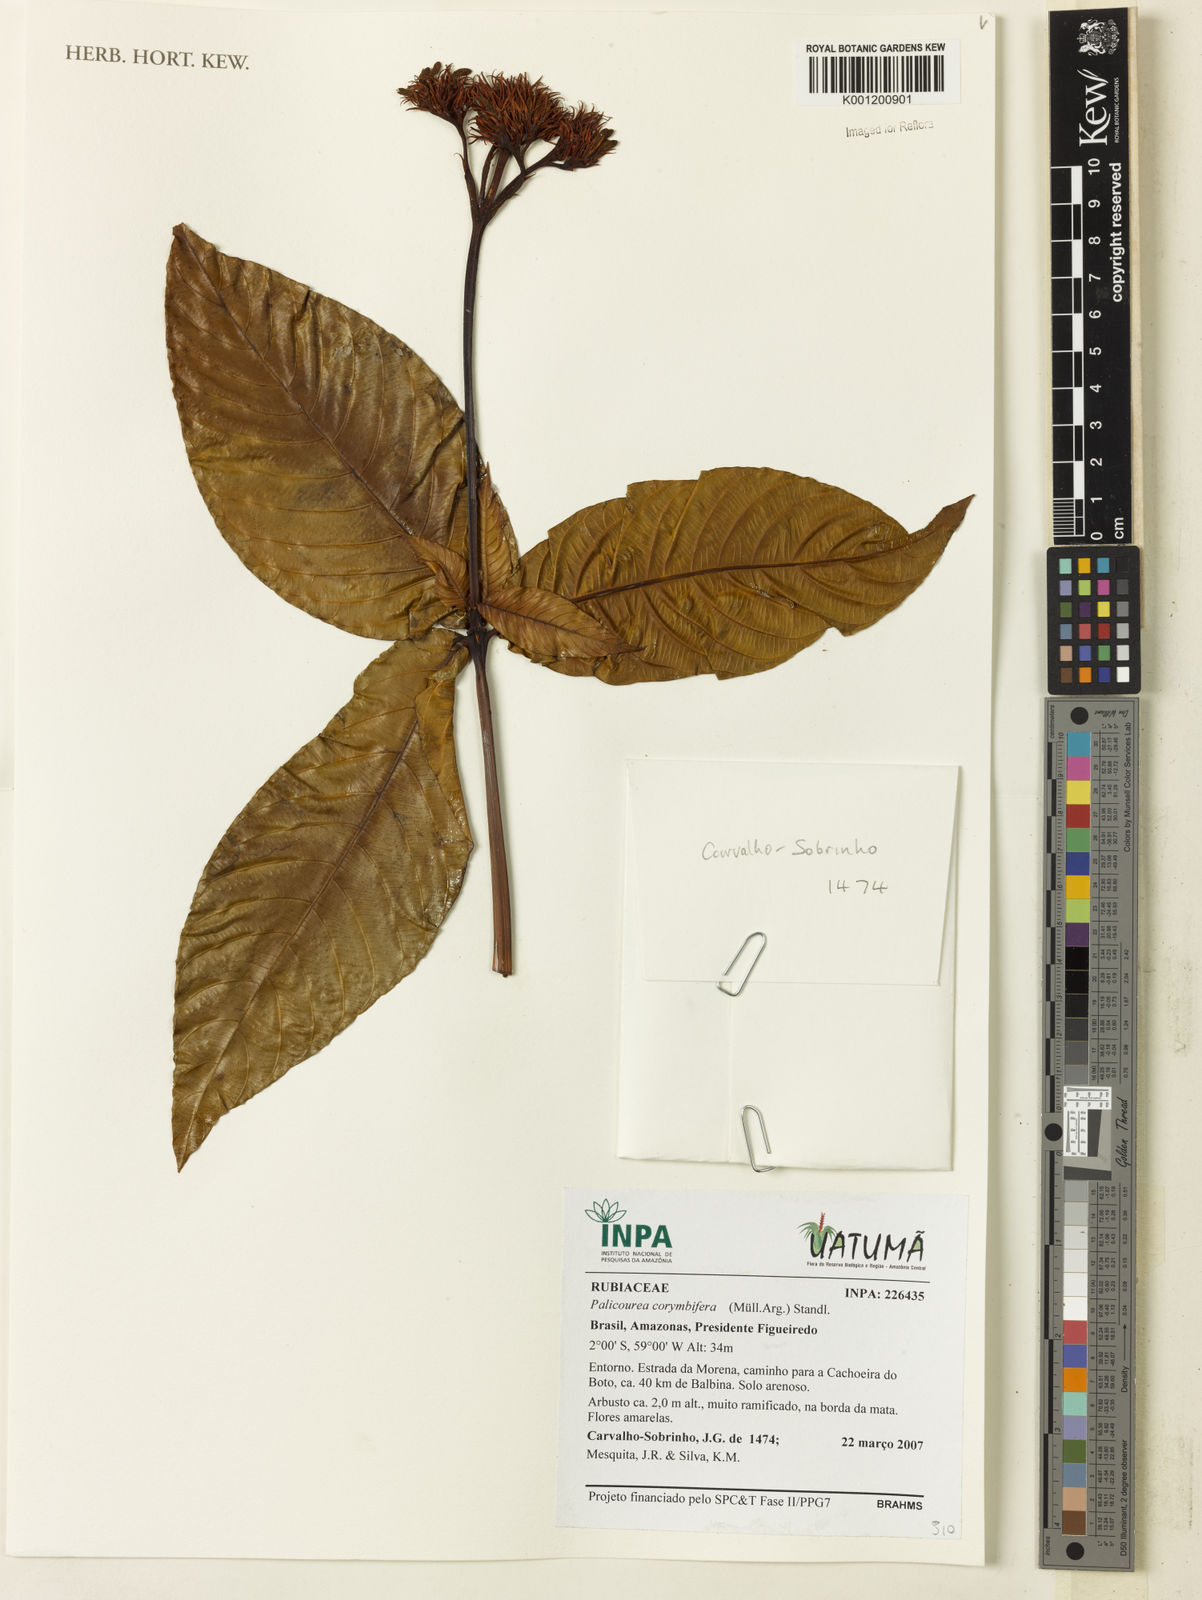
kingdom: Plantae
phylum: Tracheophyta
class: Magnoliopsida
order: Gentianales
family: Rubiaceae
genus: Palicourea
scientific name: Palicourea
